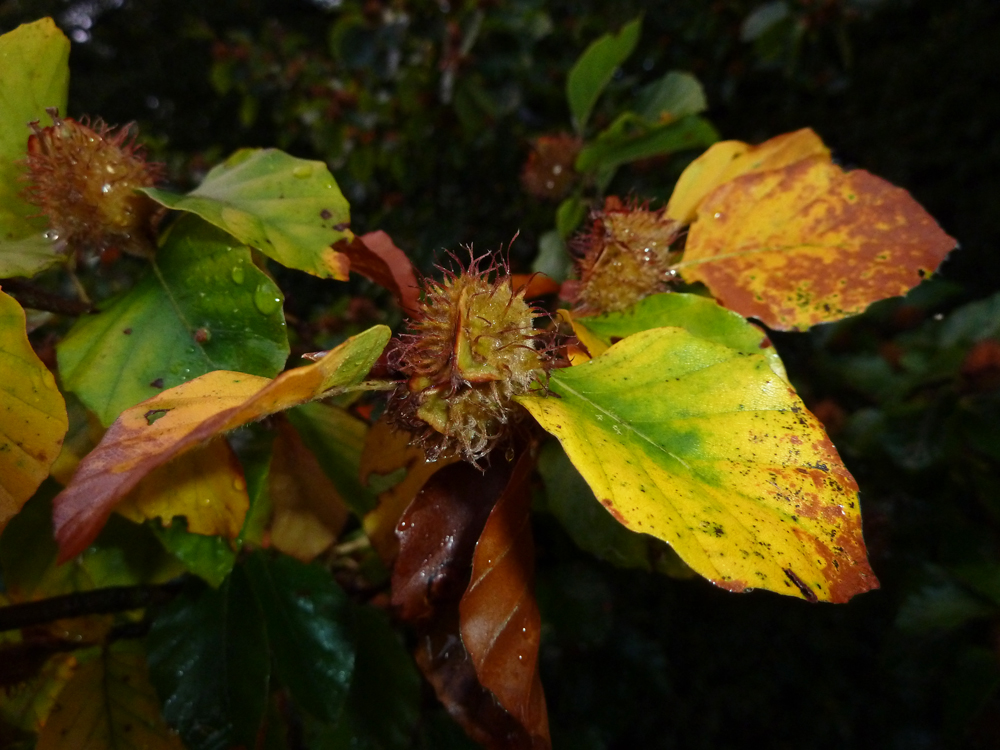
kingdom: Plantae
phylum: Tracheophyta
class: Magnoliopsida
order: Fagales
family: Fagaceae
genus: Fagus
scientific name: Fagus sylvatica
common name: Beech
